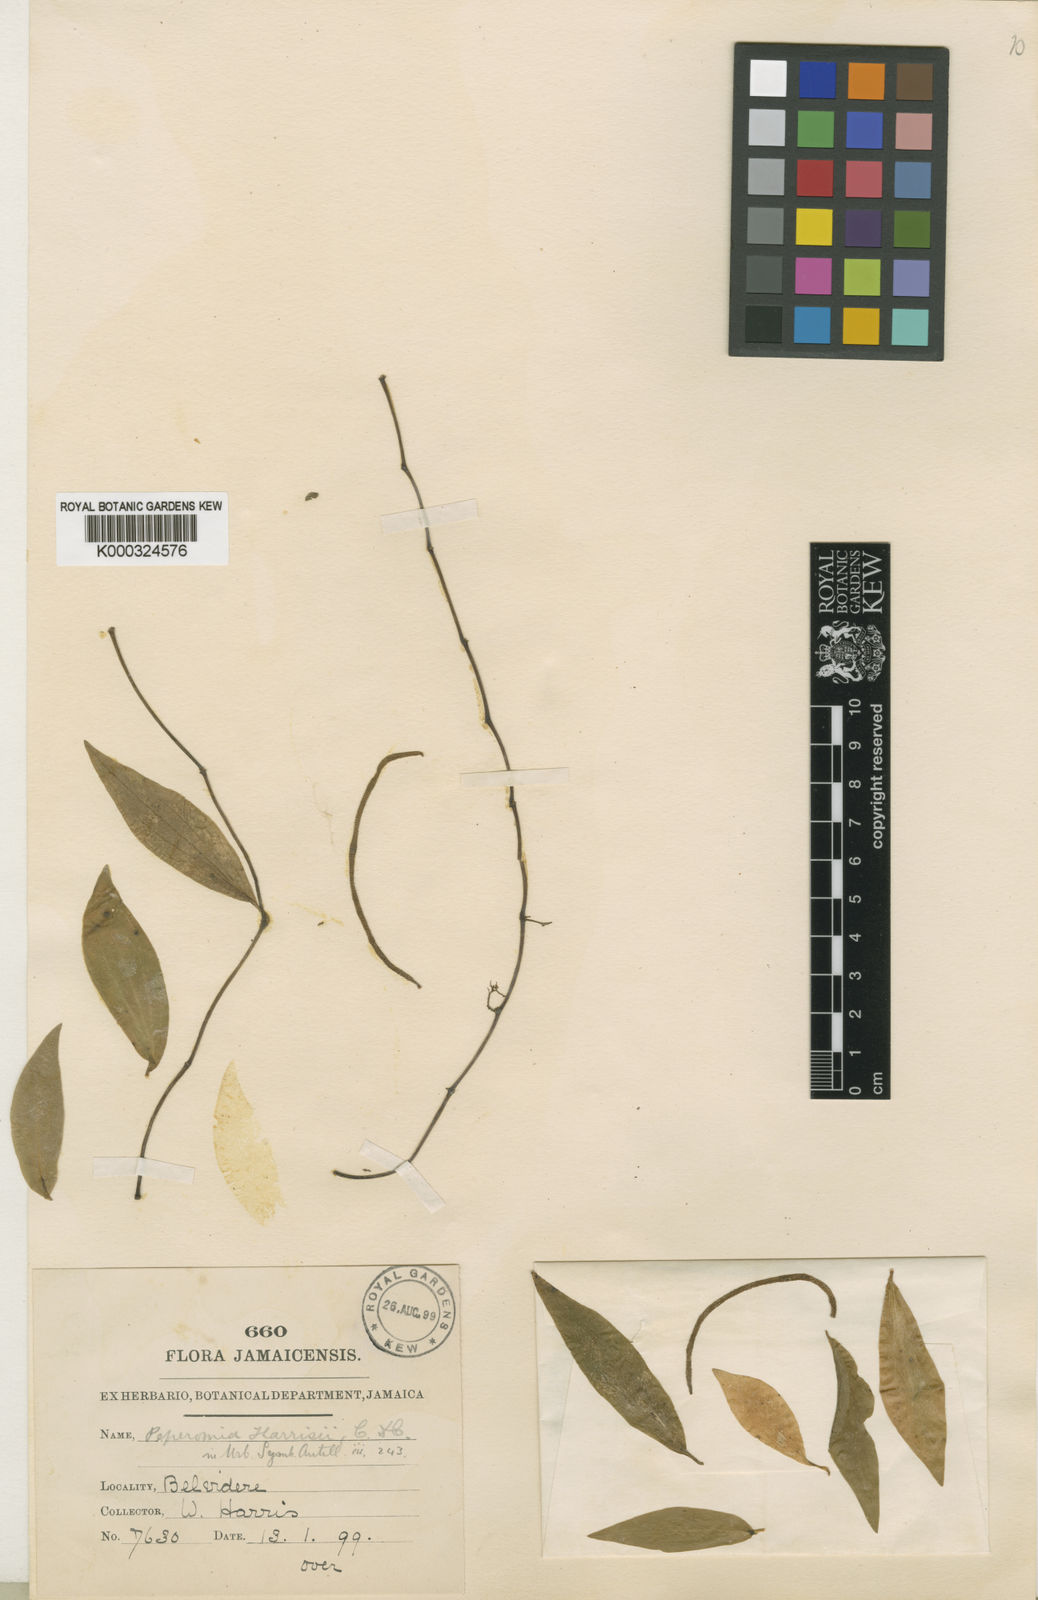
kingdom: Plantae
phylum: Tracheophyta
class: Magnoliopsida
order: Piperales
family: Piperaceae
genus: Peperomia
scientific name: Peperomia harrisii
